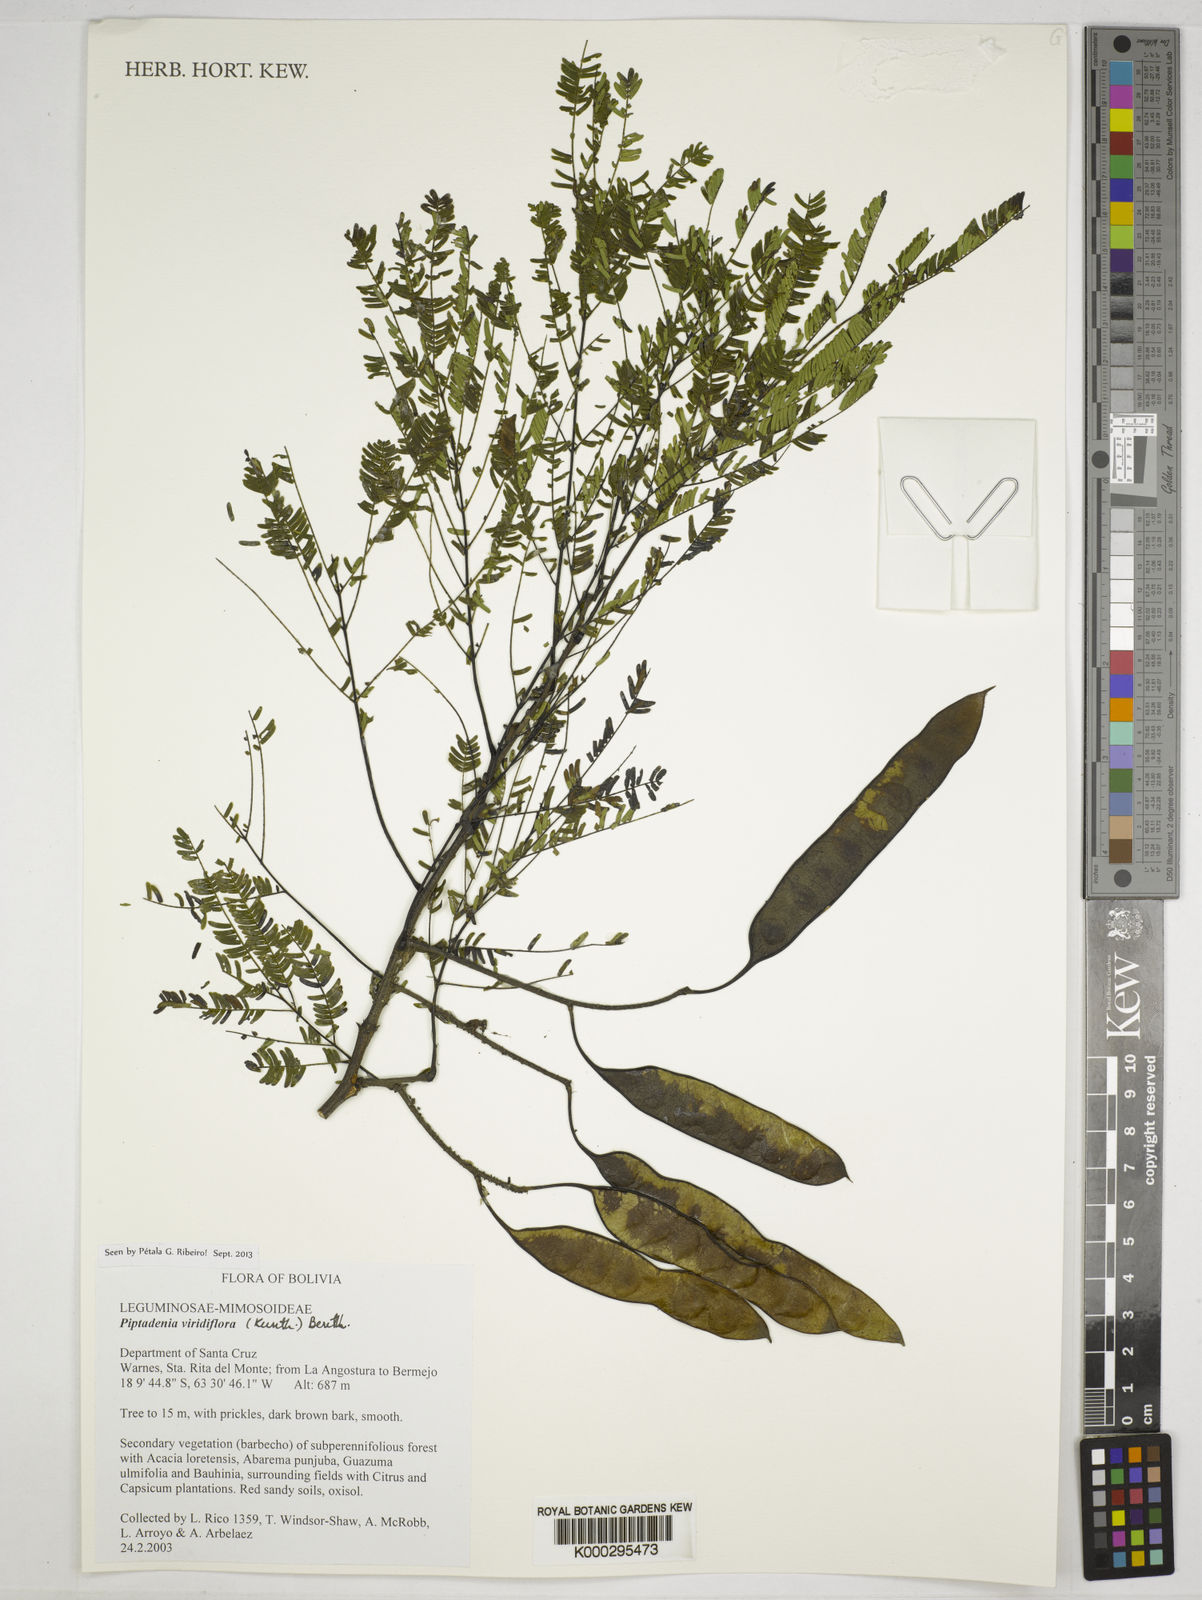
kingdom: Plantae
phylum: Tracheophyta
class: Magnoliopsida
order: Fabales
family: Fabaceae
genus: Lachesiodendron
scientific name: Lachesiodendron viridiflorum
